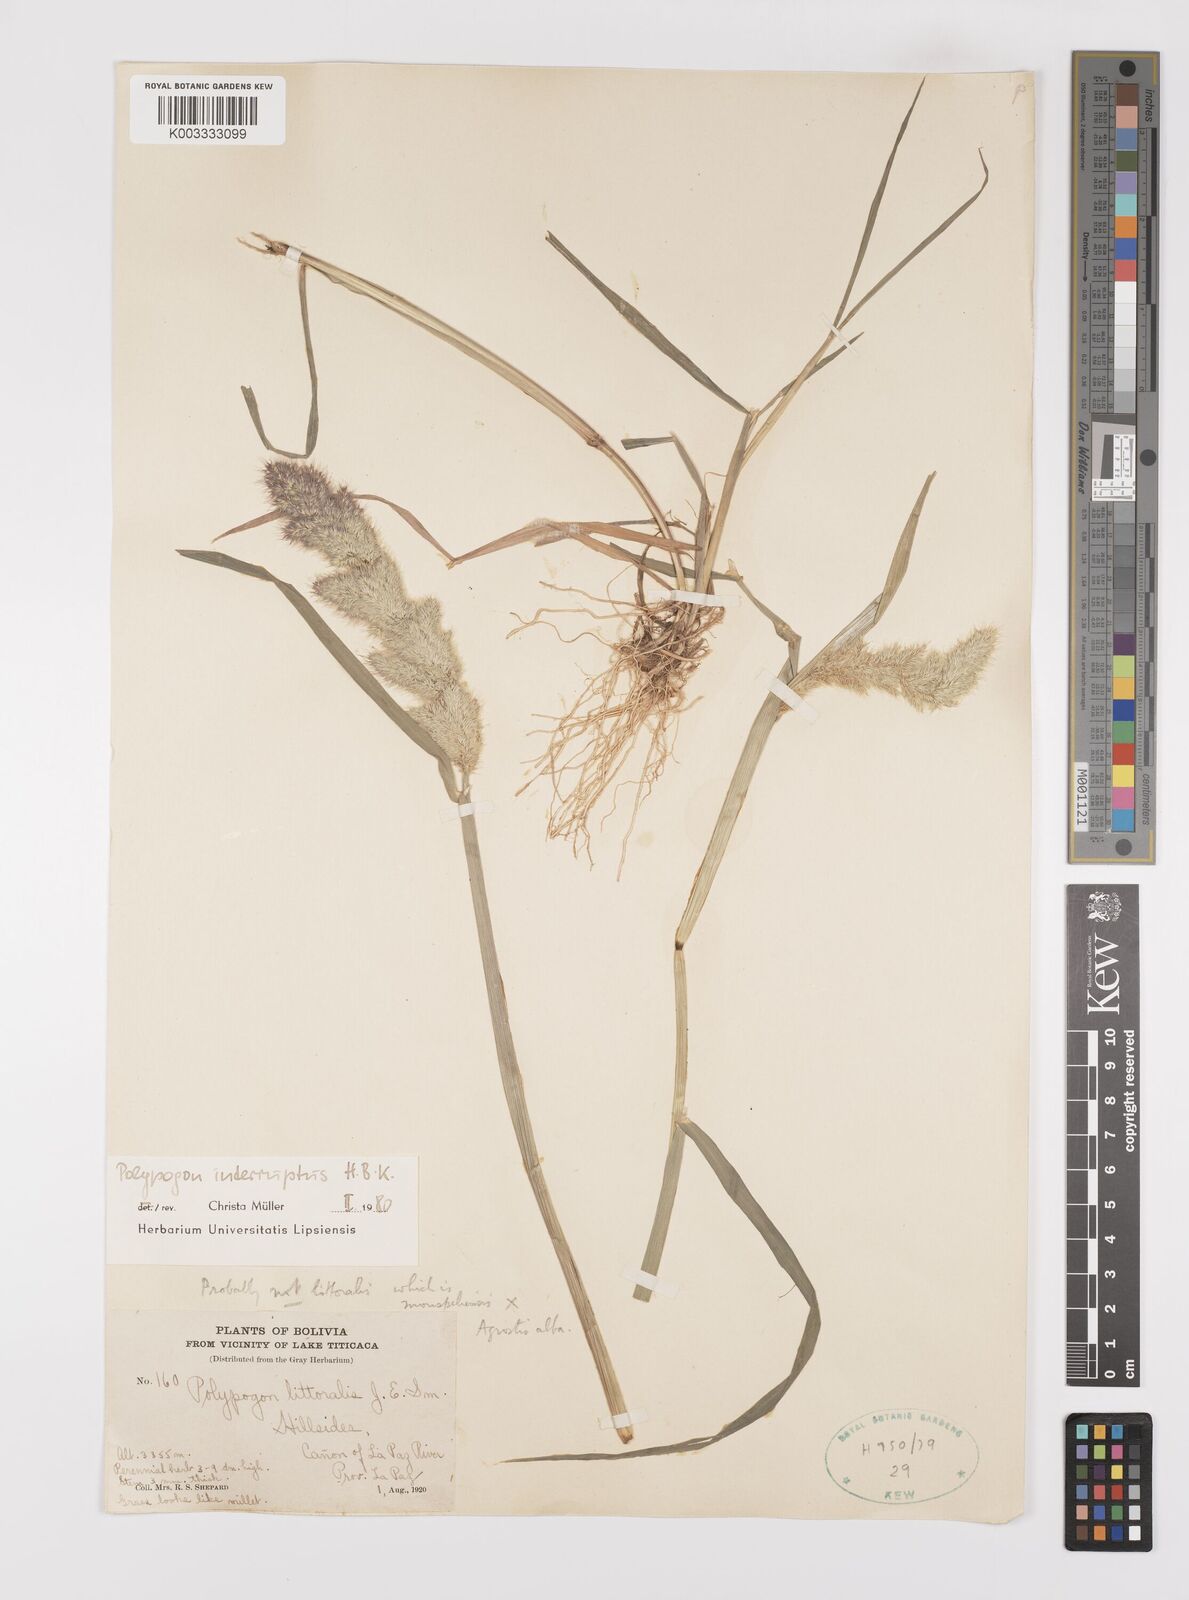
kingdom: Plantae
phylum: Tracheophyta
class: Liliopsida
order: Poales
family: Poaceae
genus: Polypogon
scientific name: Polypogon interruptus
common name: Ditch polypogon
